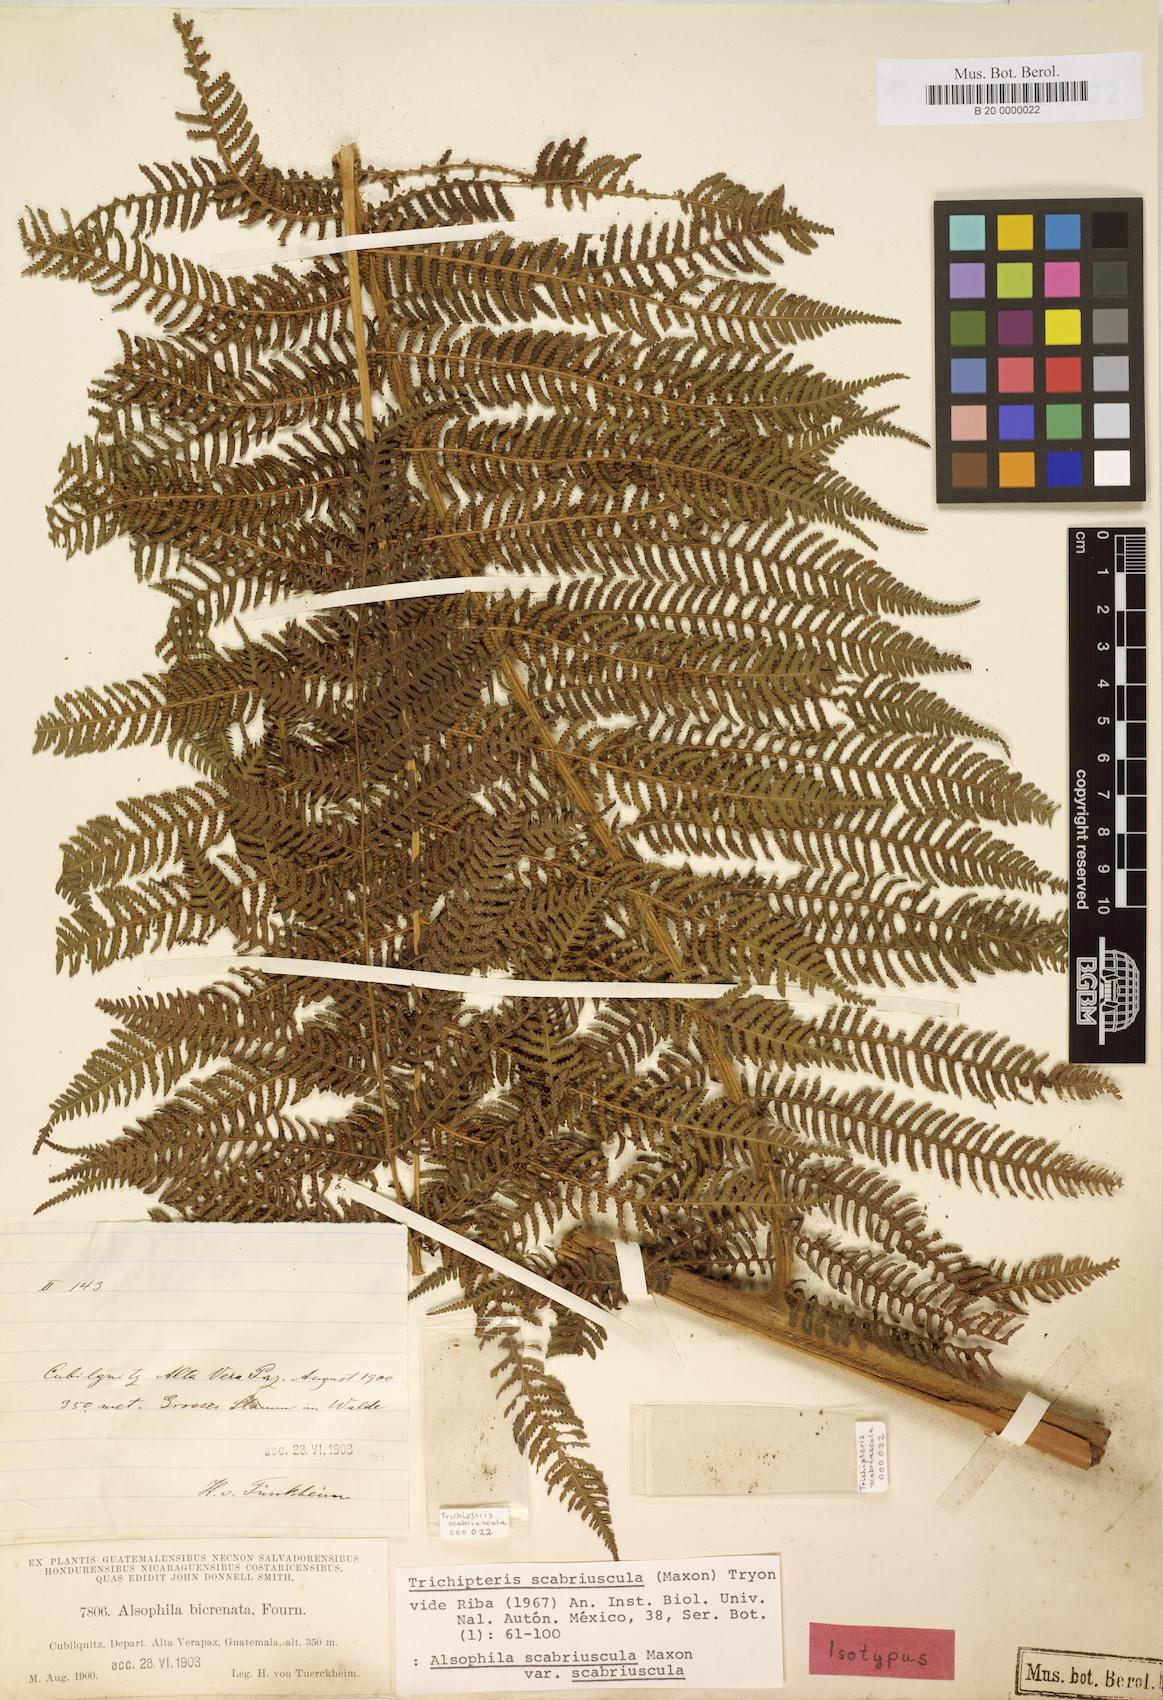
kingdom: Plantae
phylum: Tracheophyta
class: Polypodiopsida
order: Cyatheales
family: Cyatheaceae
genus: Cyathea
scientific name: Cyathea bicrenata
